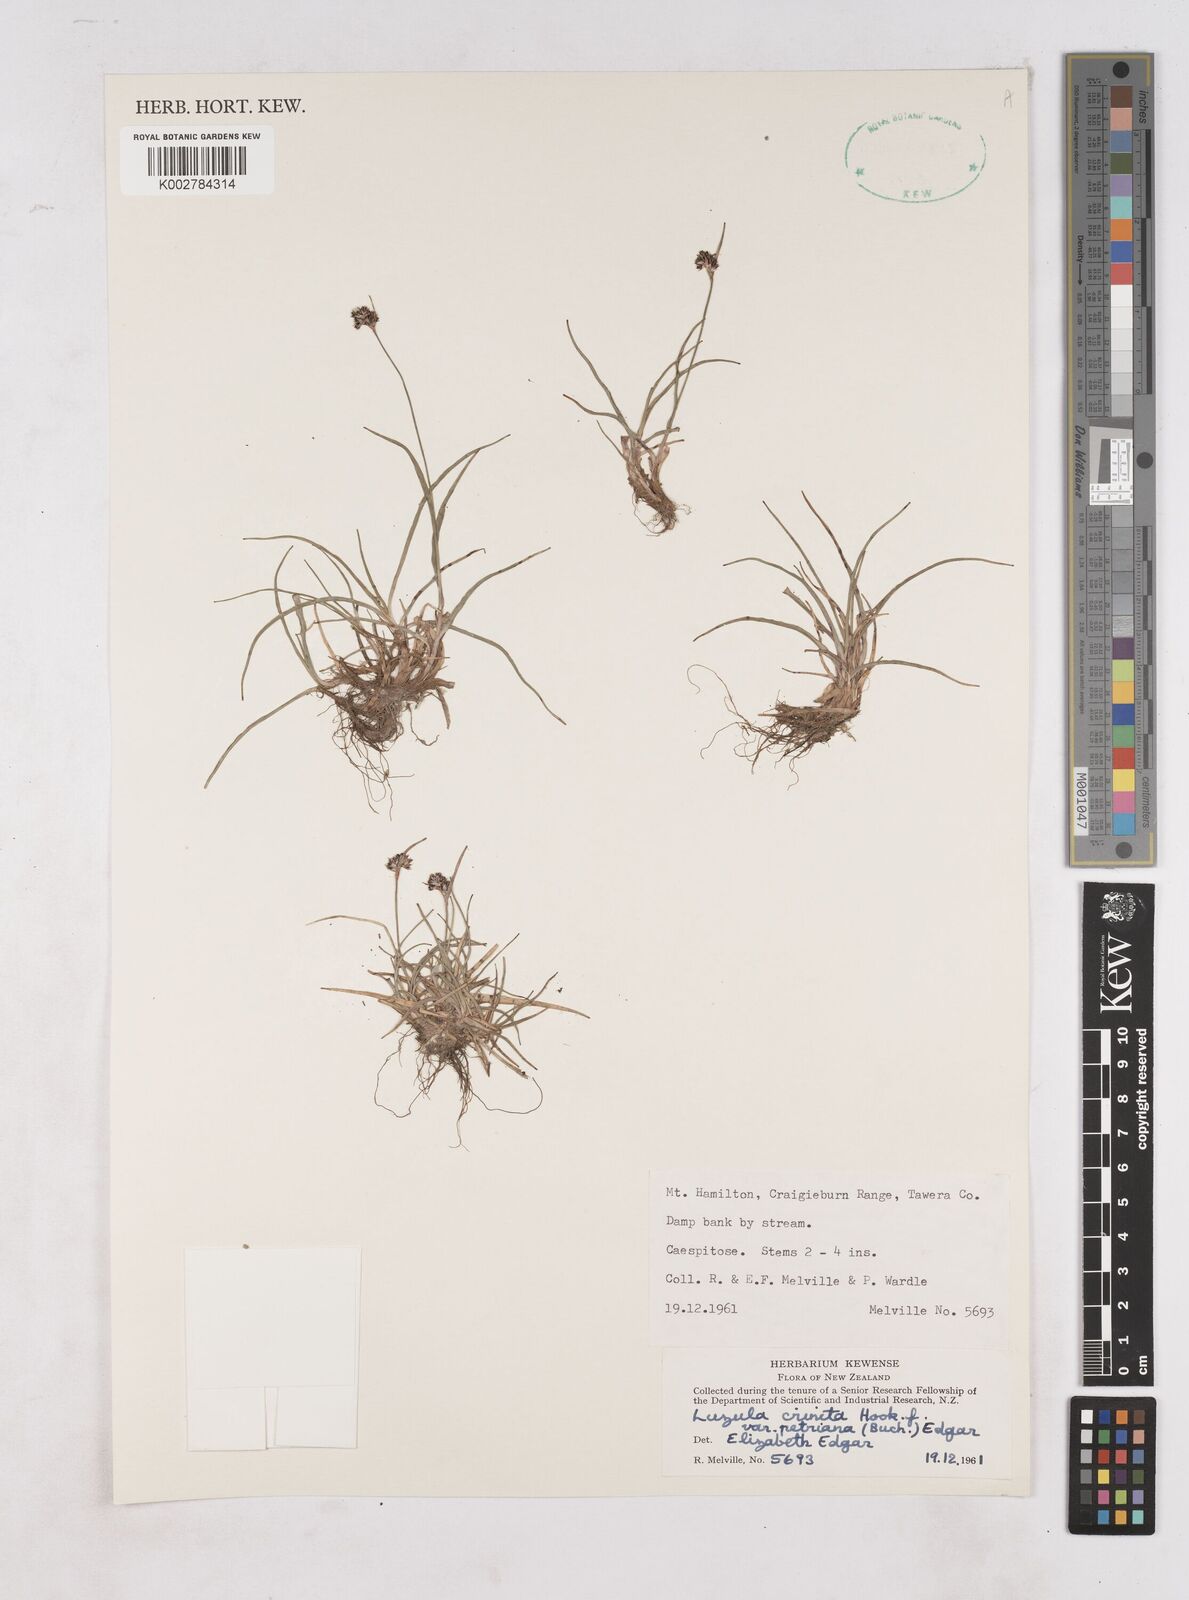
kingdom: Plantae
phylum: Tracheophyta
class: Liliopsida
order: Poales
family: Juncaceae
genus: Luzula
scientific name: Luzula crenulata
